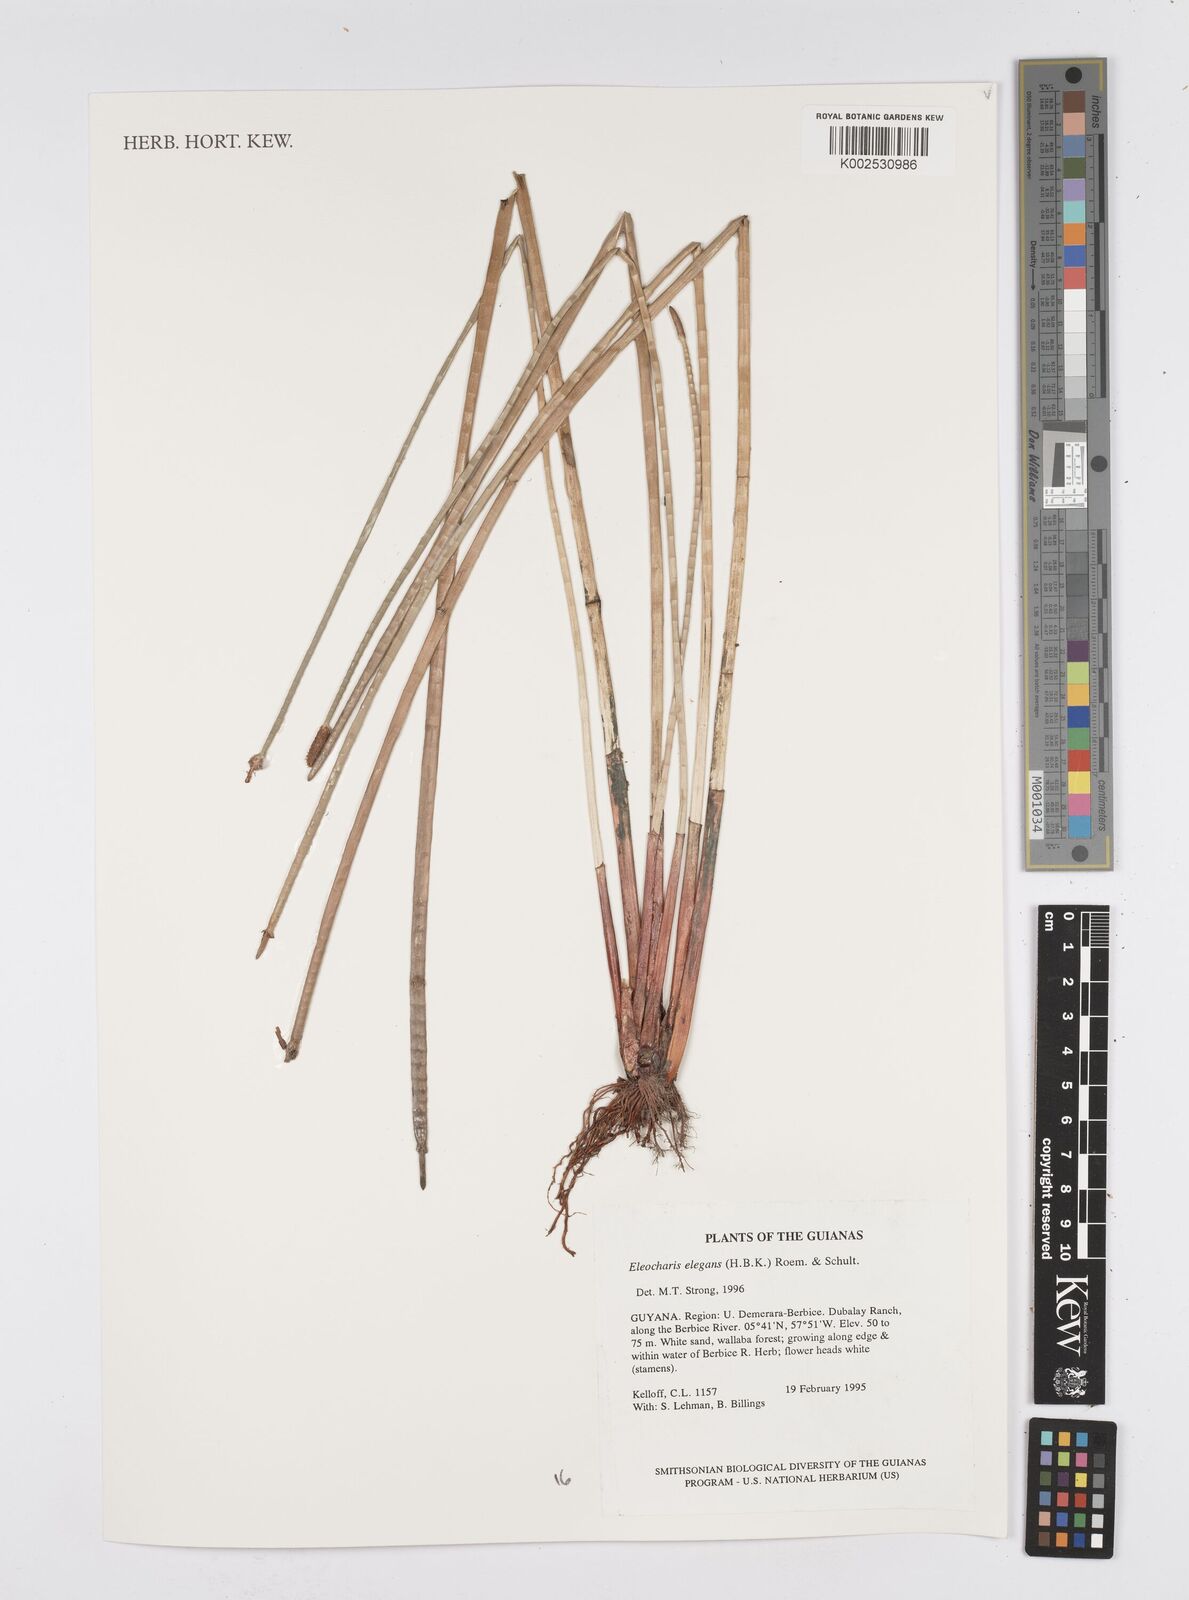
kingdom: Plantae
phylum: Tracheophyta
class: Liliopsida
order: Poales
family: Cyperaceae
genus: Eleocharis
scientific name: Eleocharis elegans
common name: Elegant spike-rush
